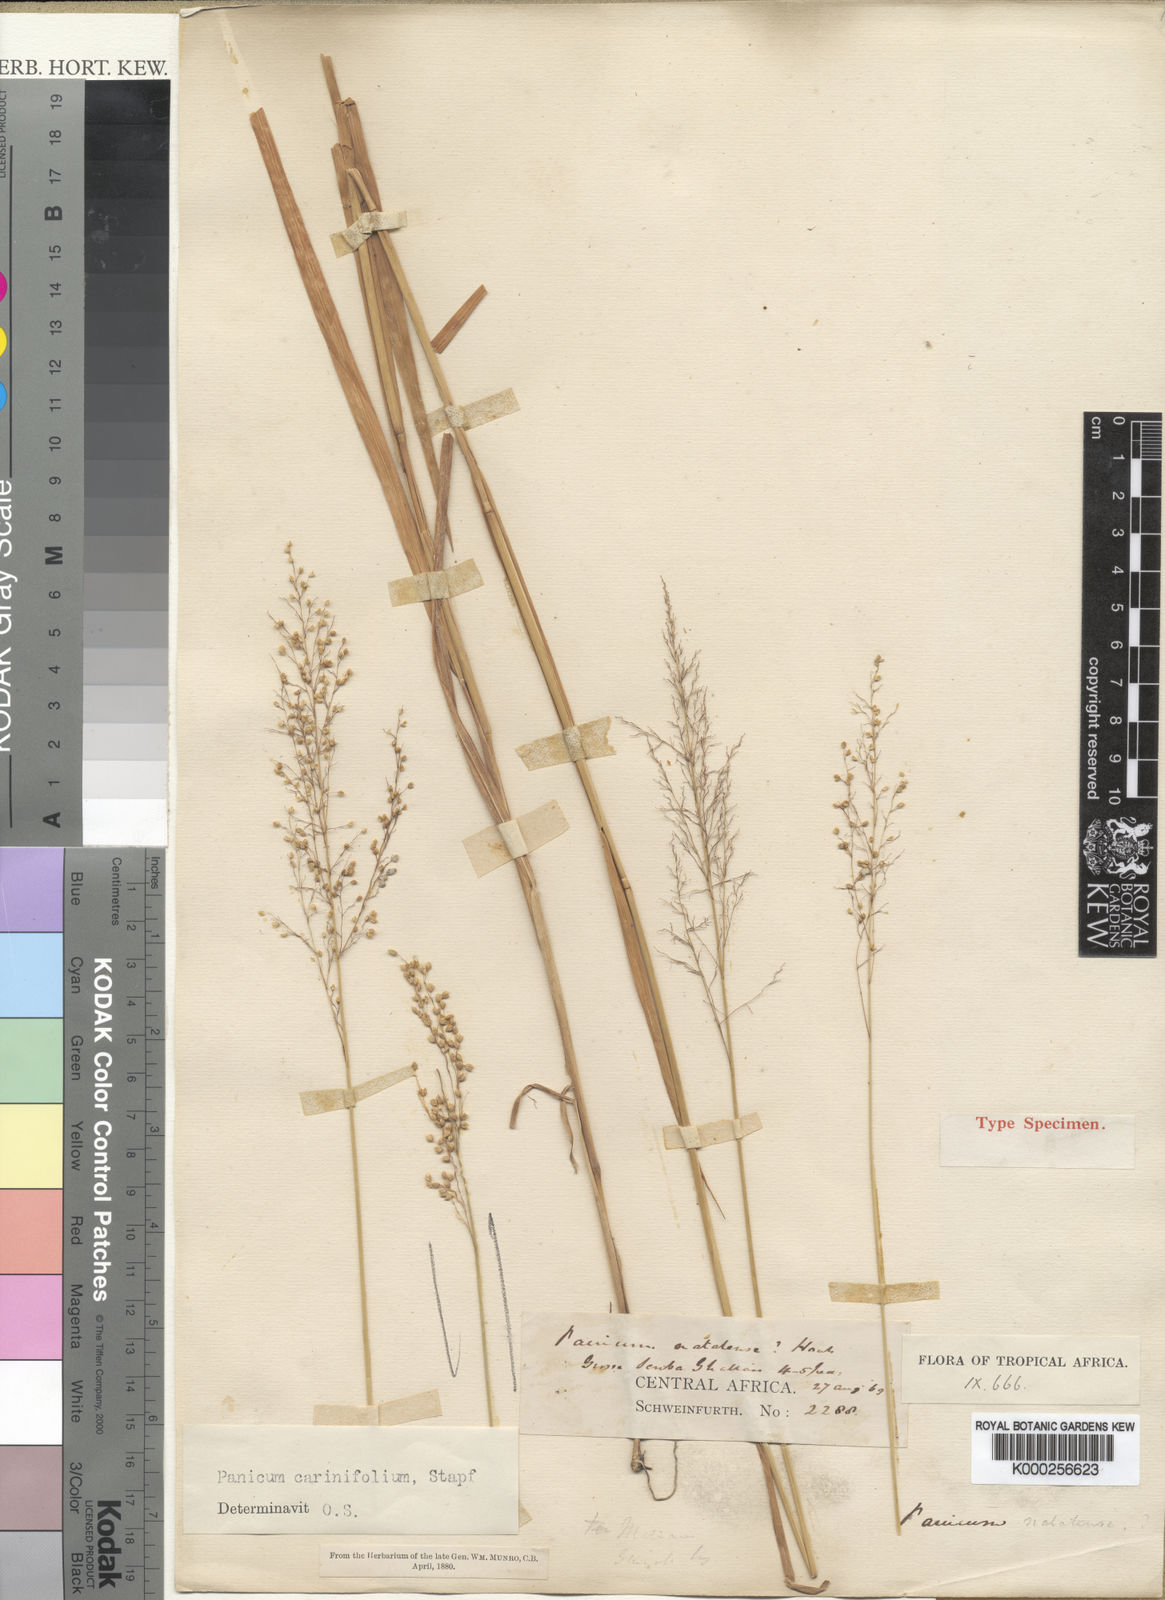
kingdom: Plantae
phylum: Tracheophyta
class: Liliopsida
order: Poales
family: Poaceae
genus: Trichanthecium
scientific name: Trichanthecium praealtum
